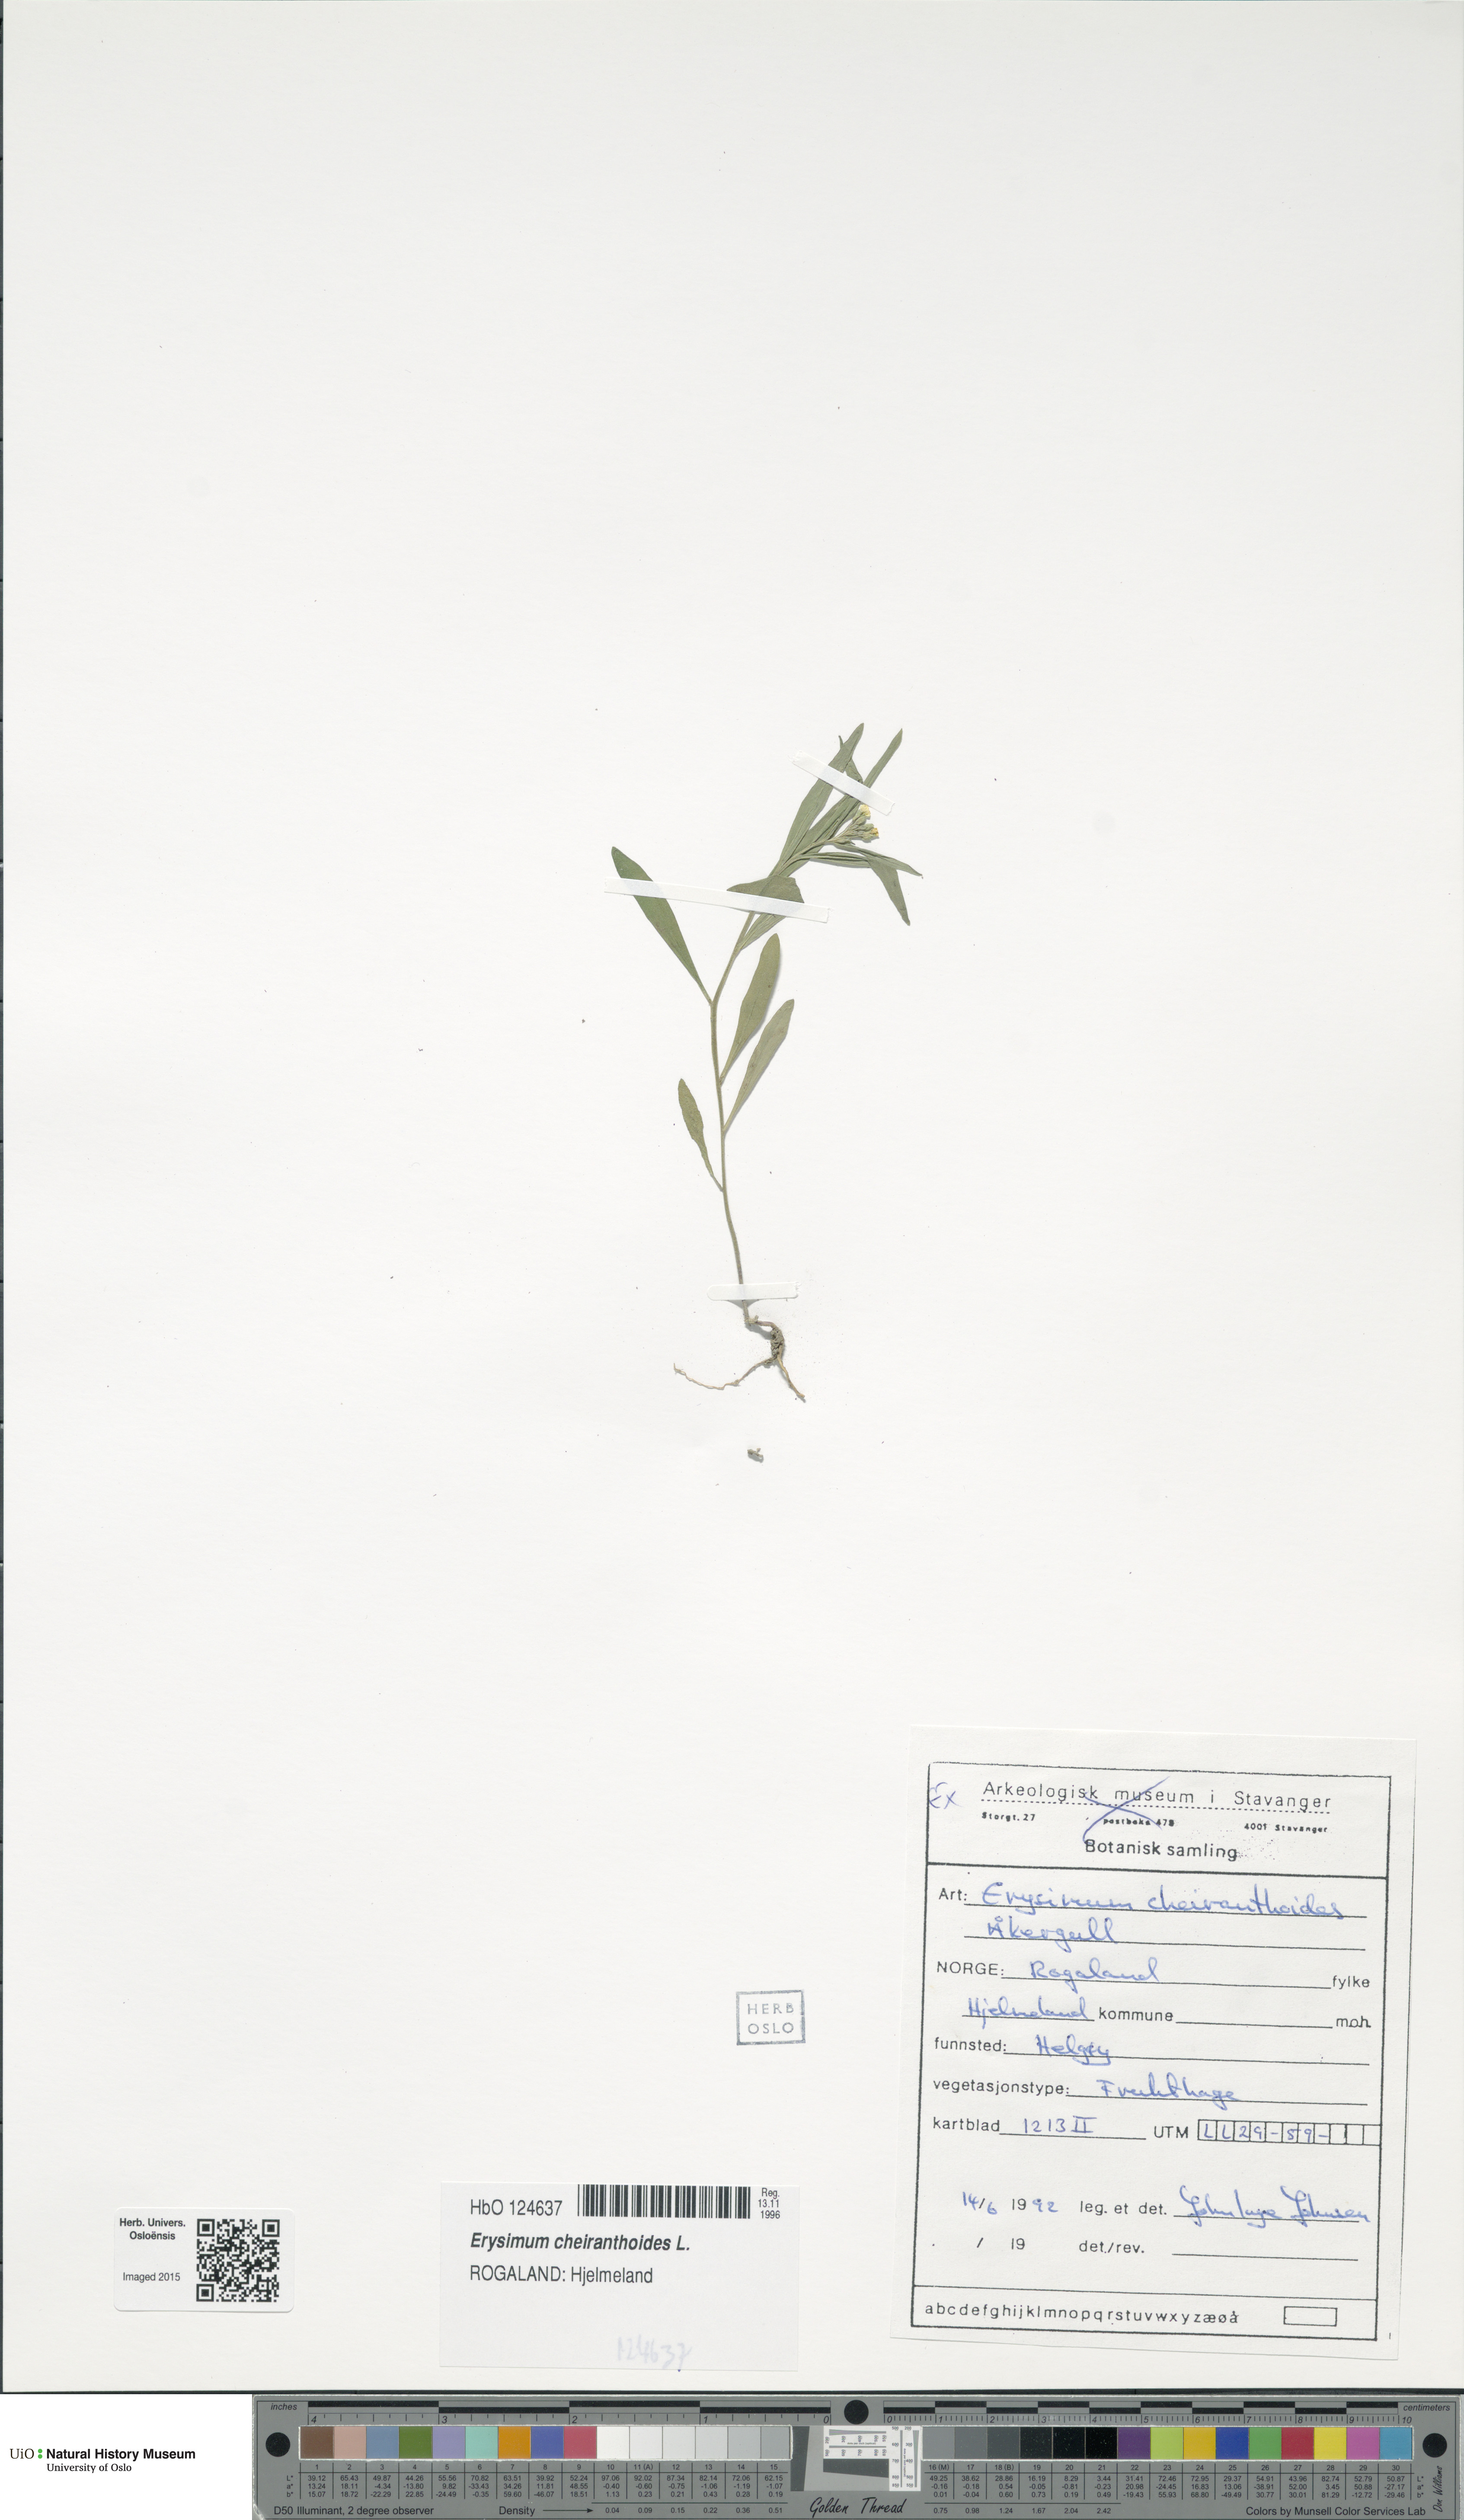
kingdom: Plantae
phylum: Tracheophyta
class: Magnoliopsida
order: Brassicales
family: Brassicaceae
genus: Erysimum
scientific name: Erysimum cheiranthoides
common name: Treacle mustard
